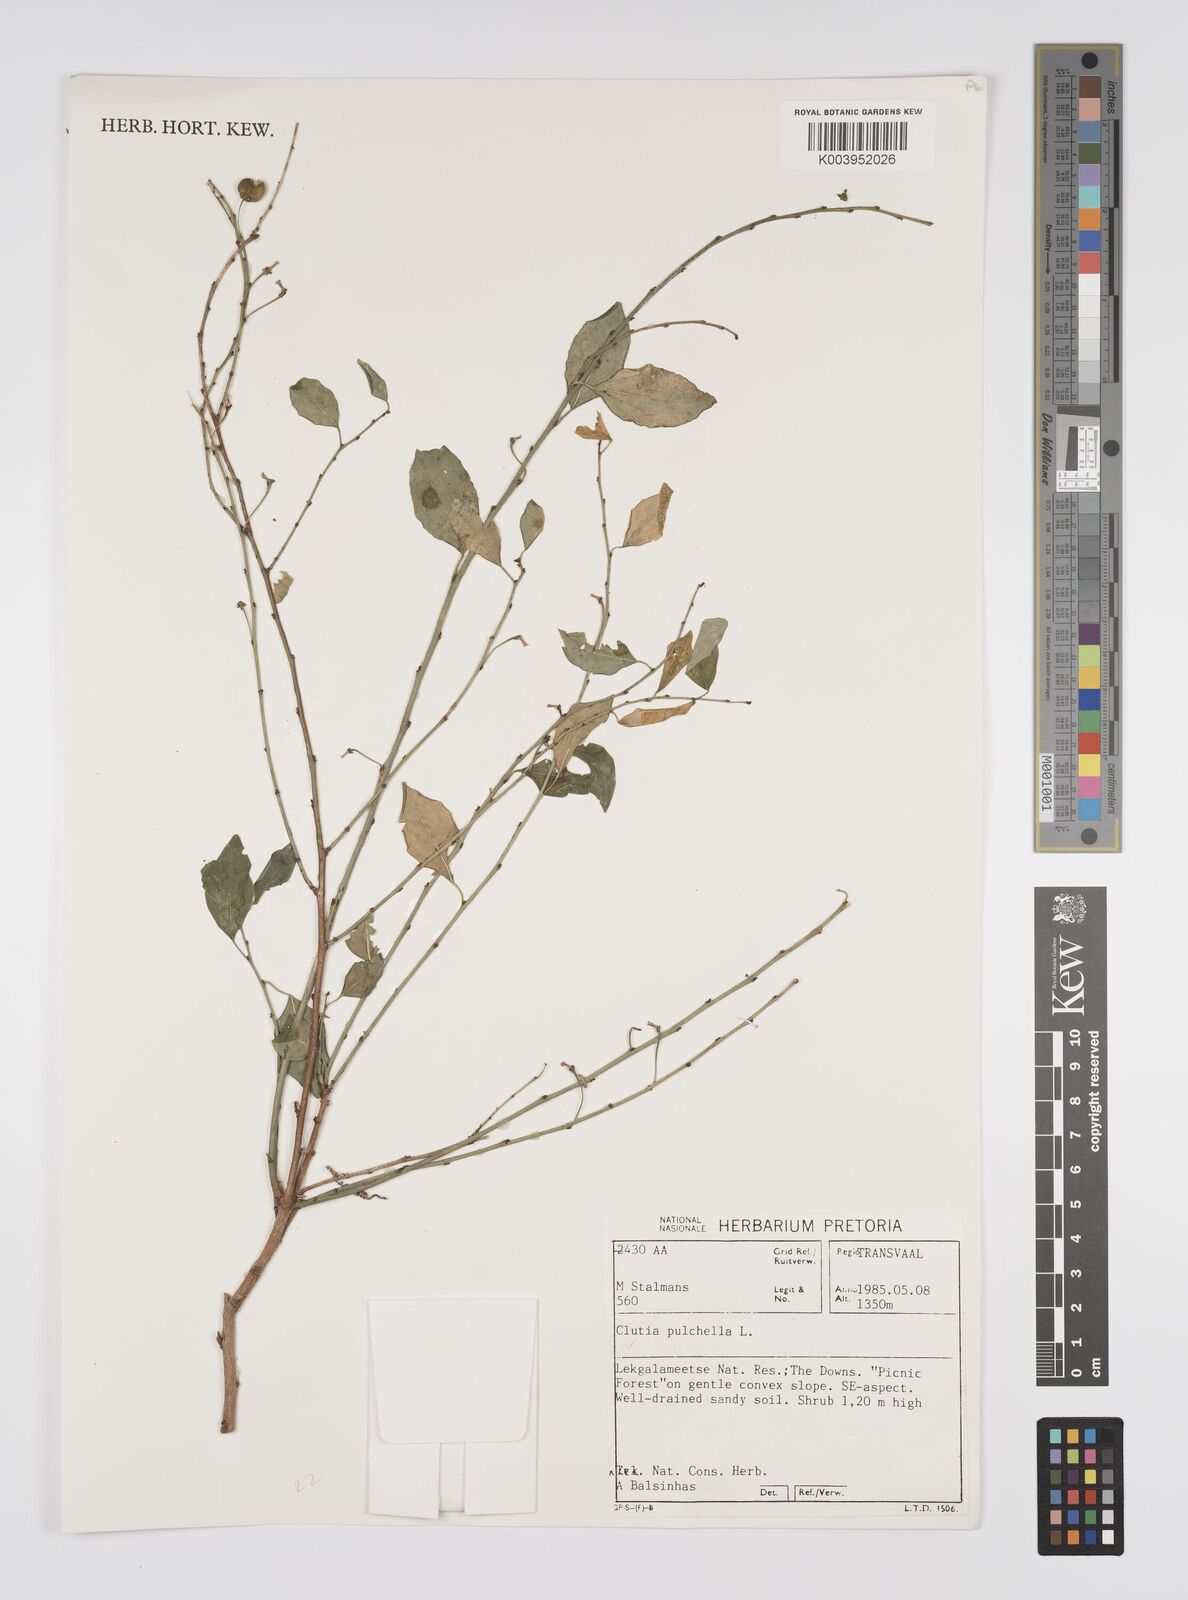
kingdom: Plantae
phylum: Tracheophyta
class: Magnoliopsida
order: Malpighiales
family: Peraceae
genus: Clutia
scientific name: Clutia pulchella
